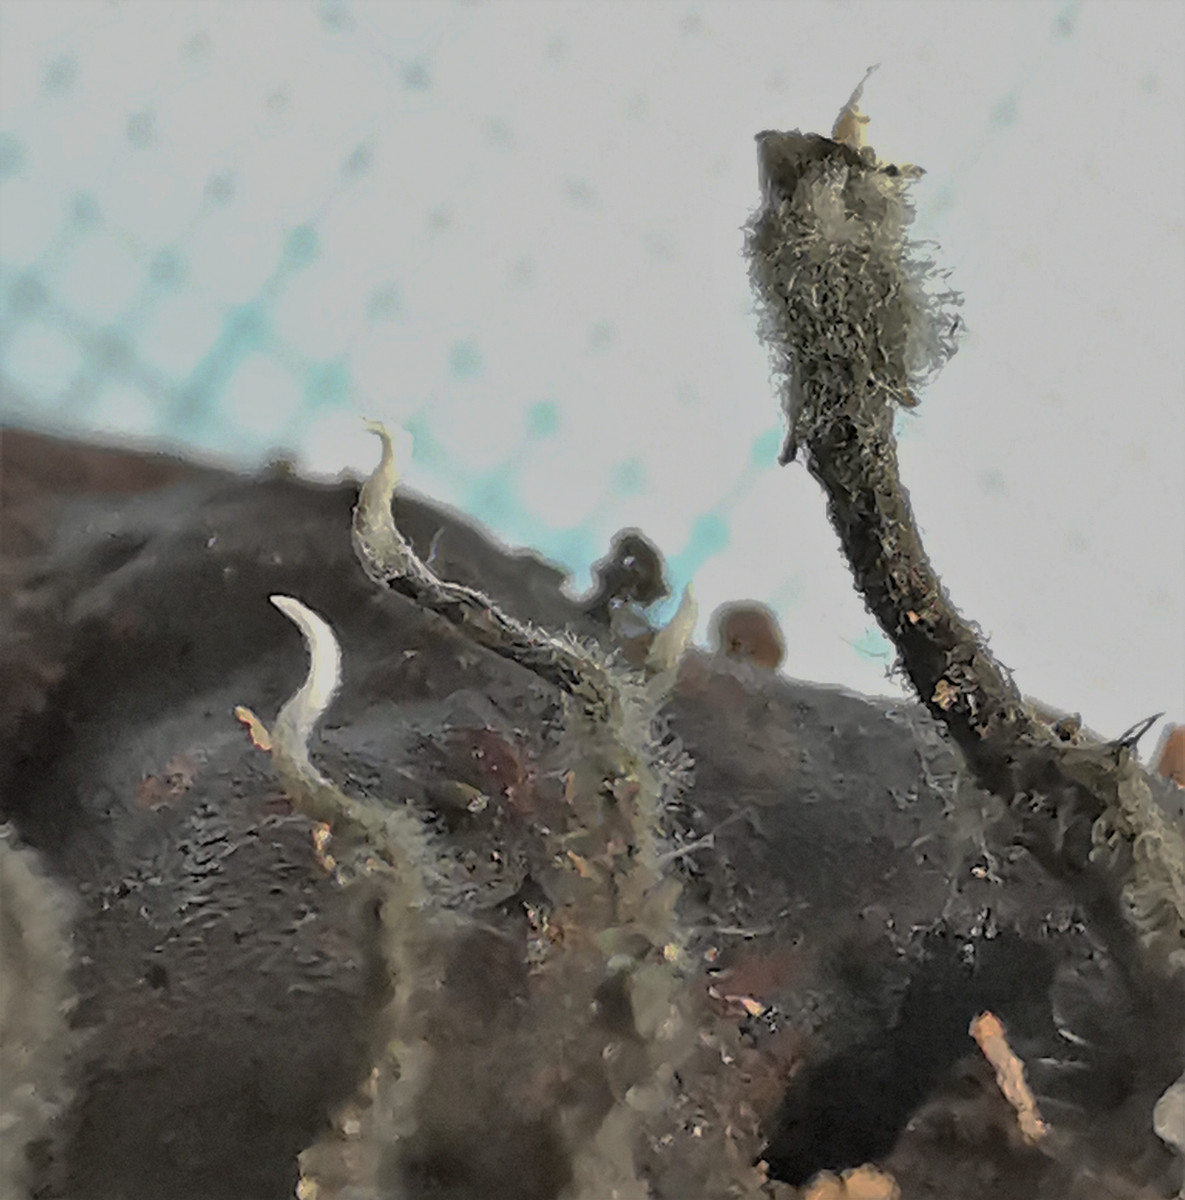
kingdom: Fungi
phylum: Ascomycota
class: Sordariomycetes
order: Xylariales
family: Xylariaceae
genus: Xylaria
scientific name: Xylaria carpophila
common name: bogskål-stødsvamp
